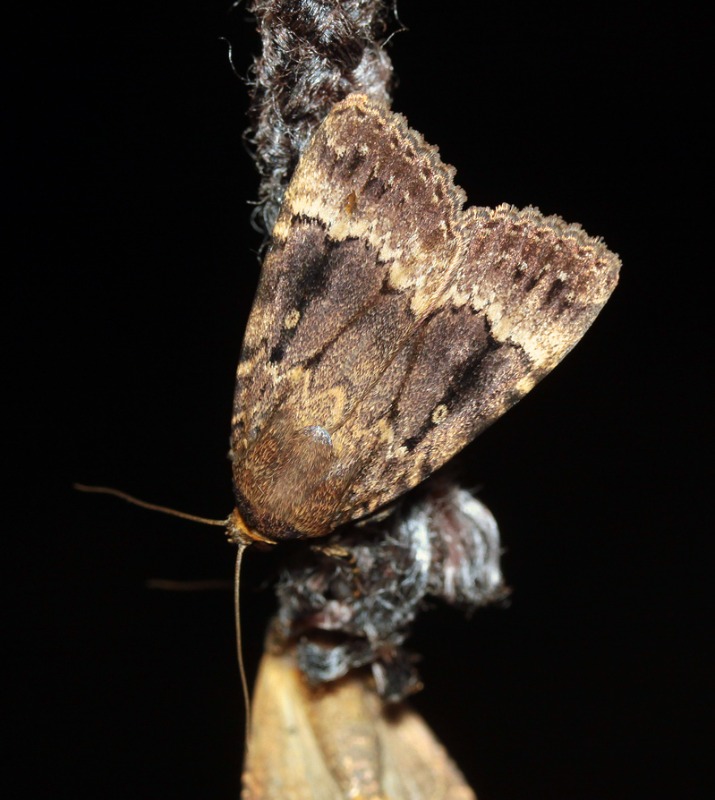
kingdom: Animalia
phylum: Arthropoda
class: Insecta
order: Lepidoptera
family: Noctuidae
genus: Amphipyra
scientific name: Amphipyra pyramidea
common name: Pyramideugle
